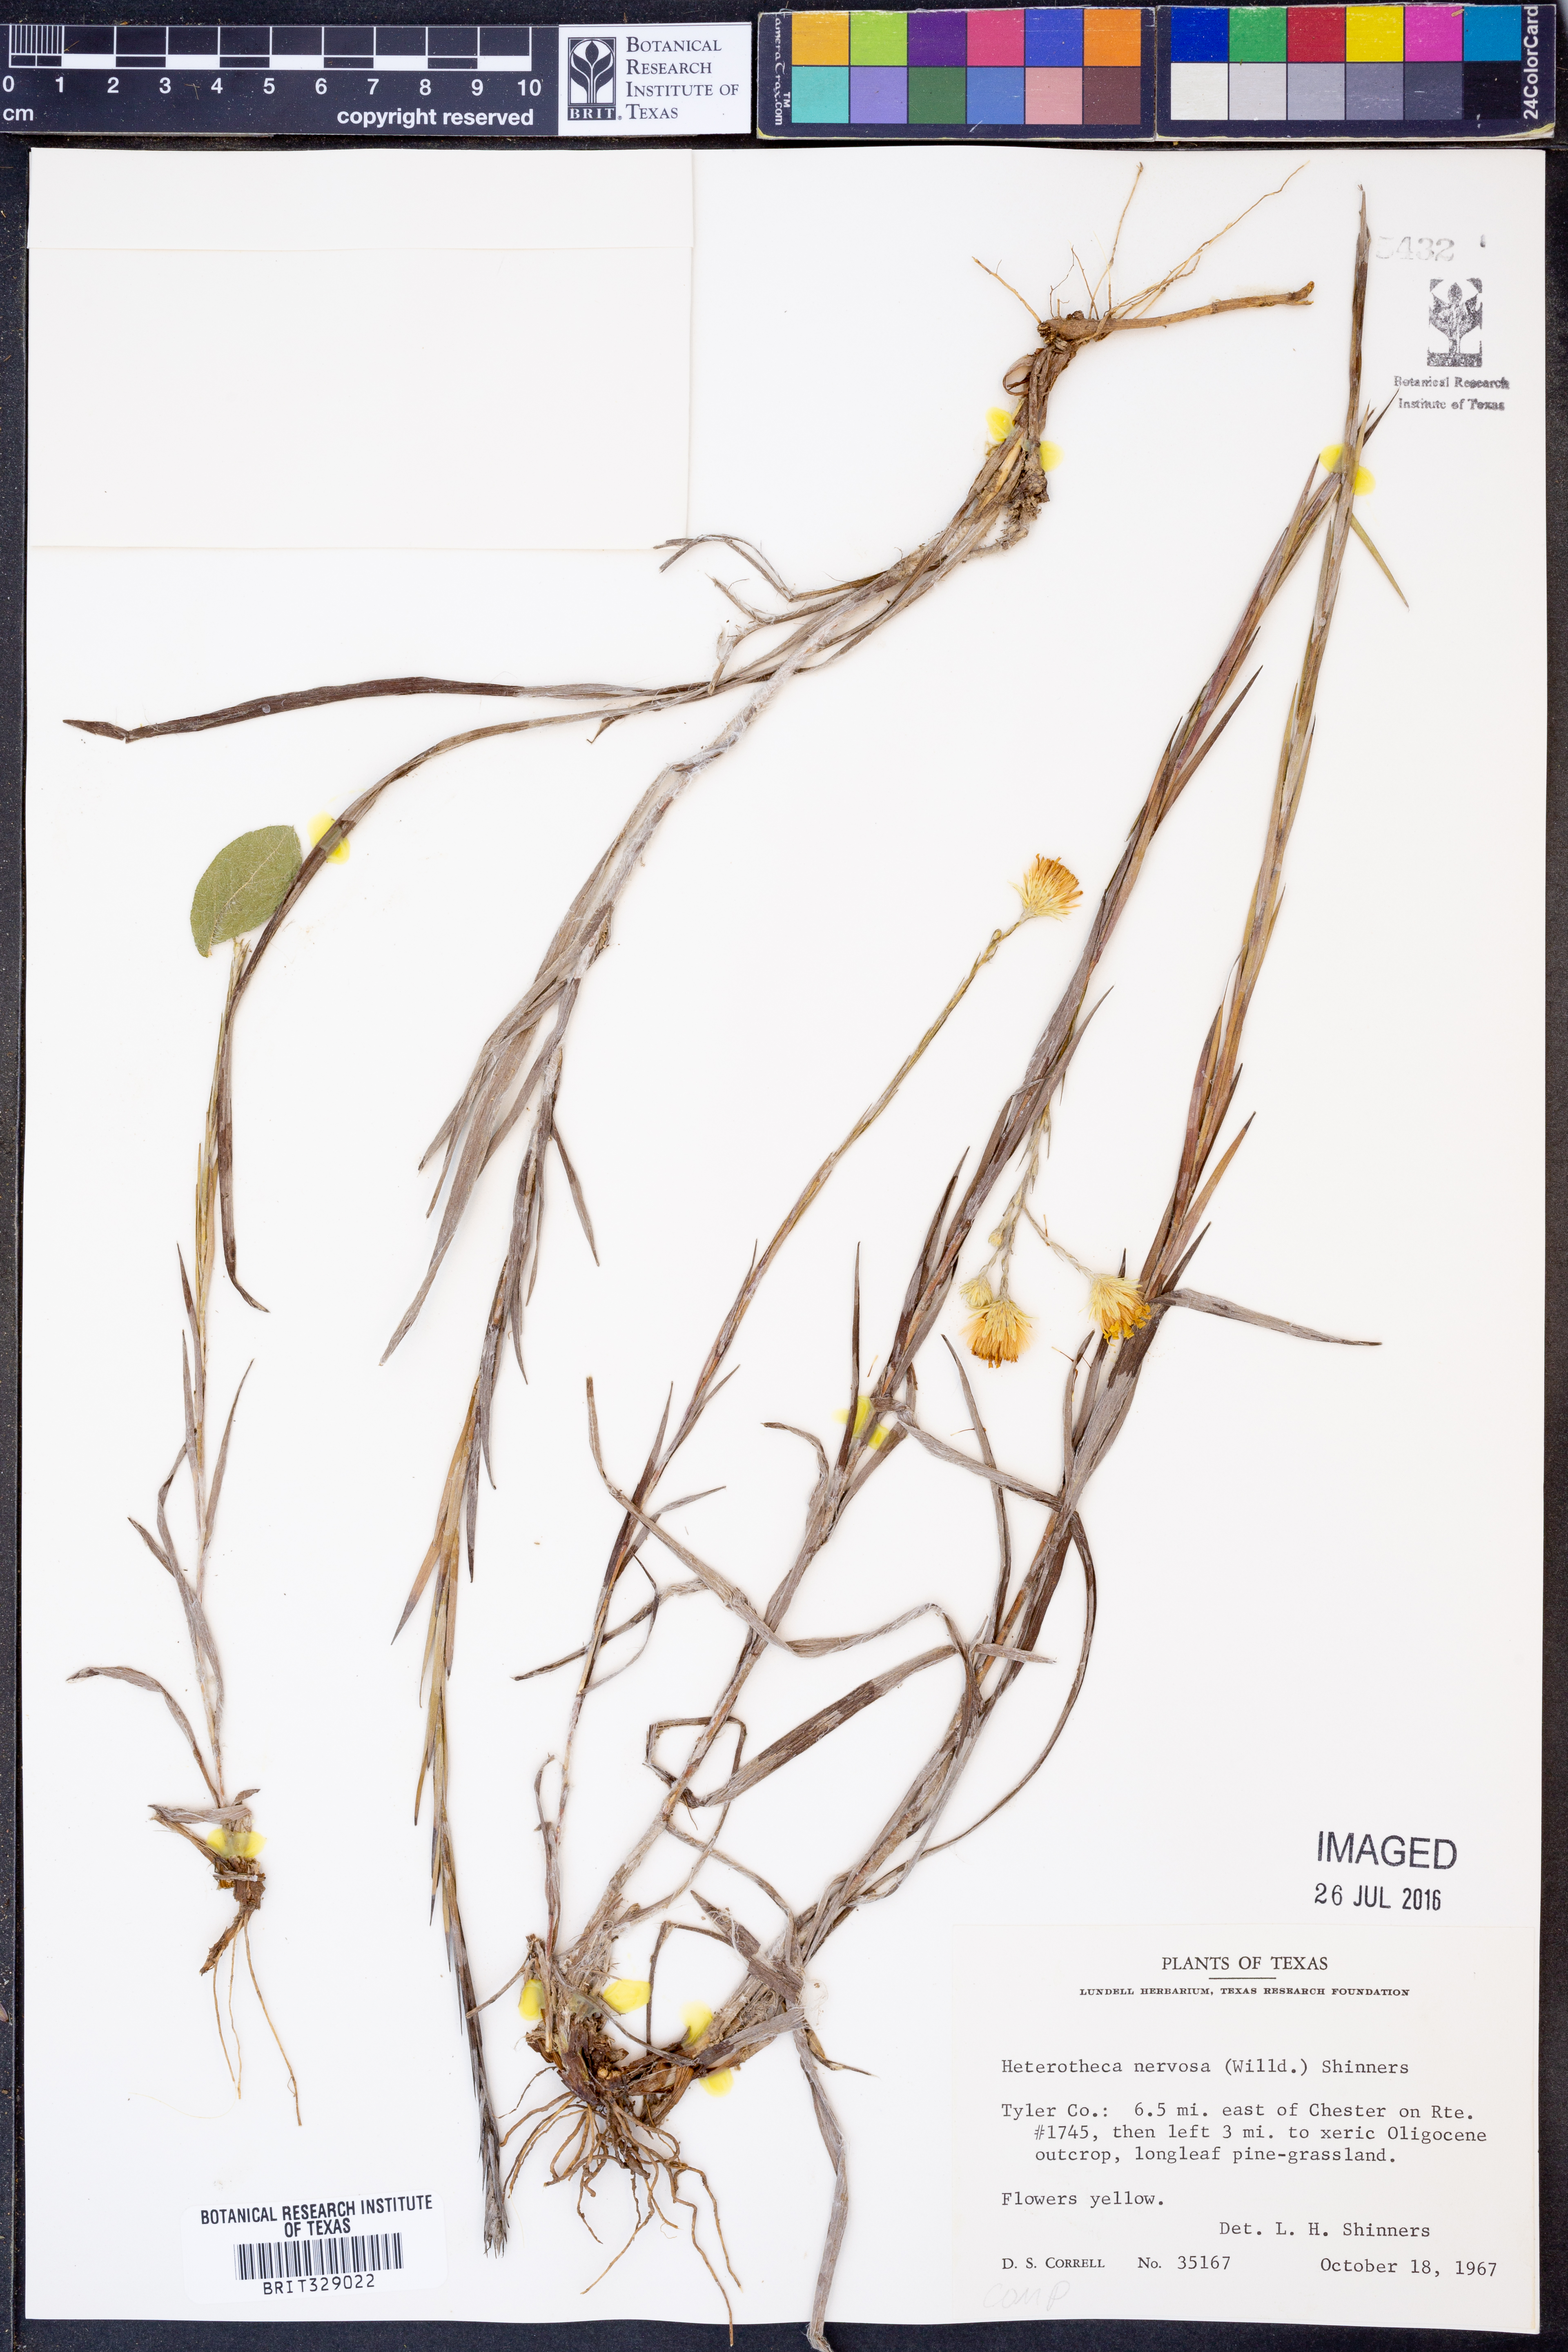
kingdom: Plantae
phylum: Tracheophyta
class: Magnoliopsida
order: Asterales
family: Asteraceae
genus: Pityopsis
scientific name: Pityopsis graminifolia
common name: Grass-leaf golden-aster
